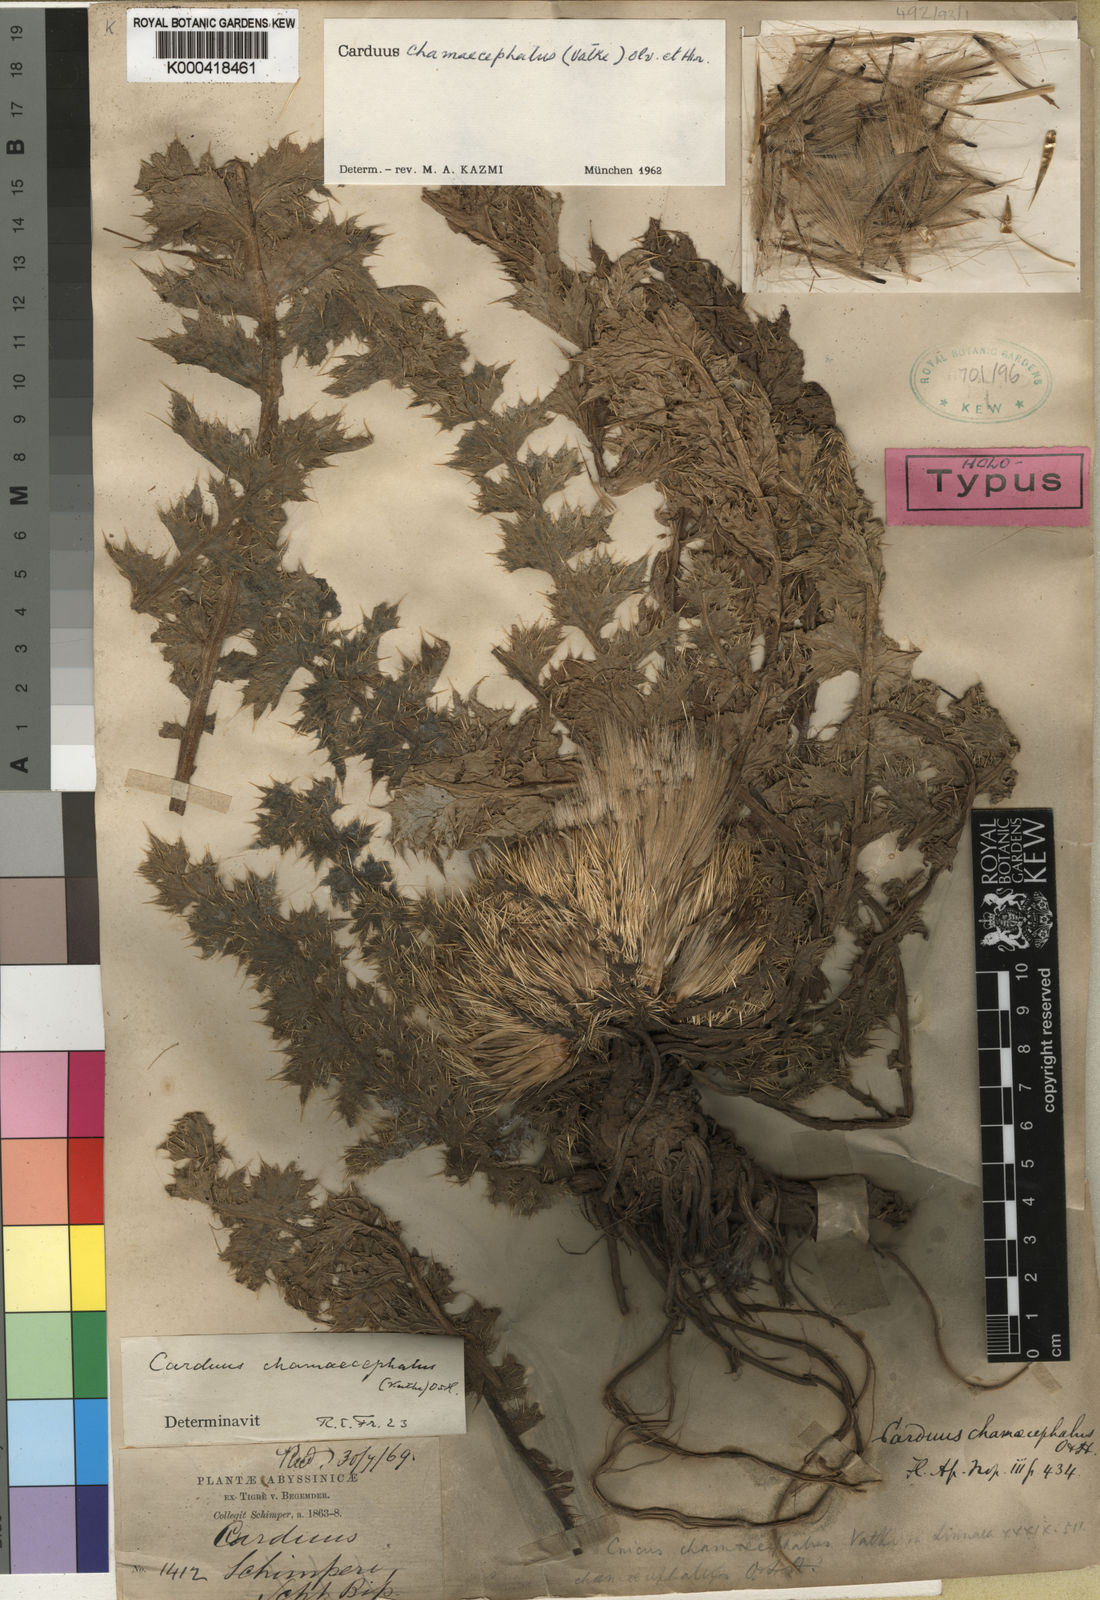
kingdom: Plantae
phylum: Tracheophyta
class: Magnoliopsida
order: Asterales
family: Asteraceae
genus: Carduus
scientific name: Carduus schimperi
